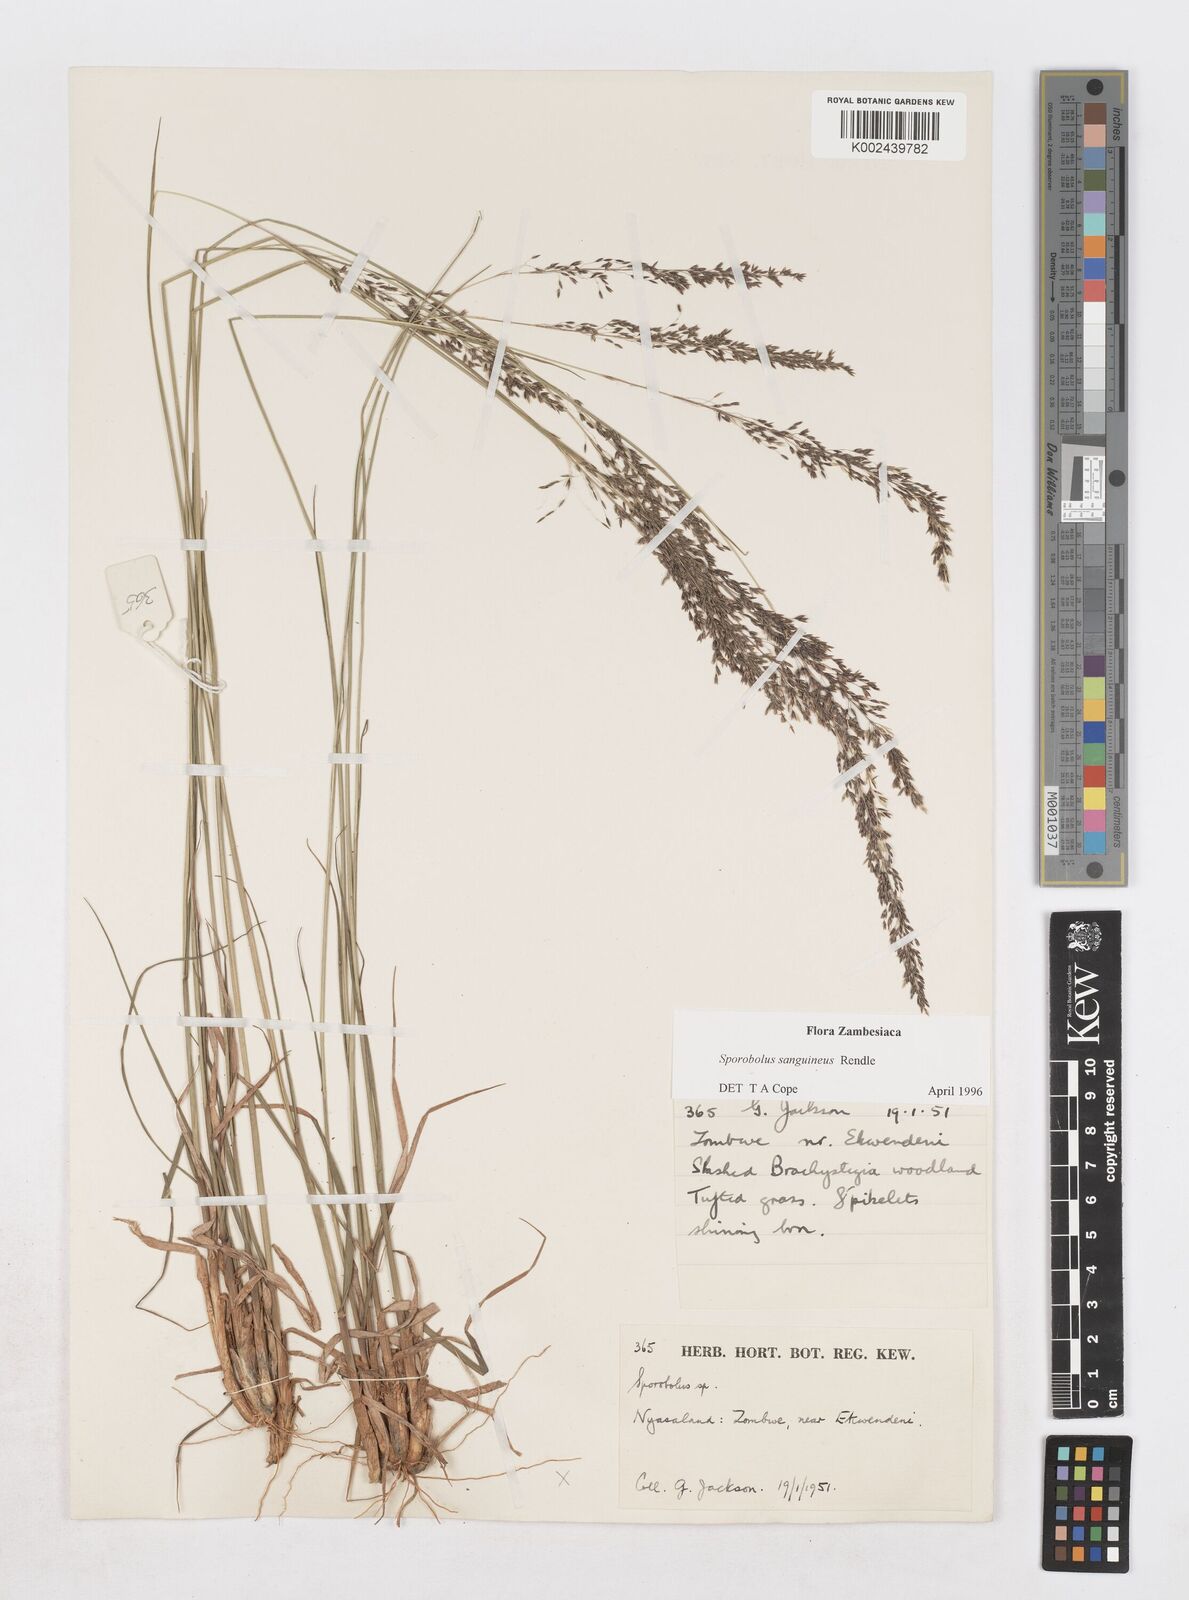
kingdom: Plantae
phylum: Tracheophyta
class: Liliopsida
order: Poales
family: Poaceae
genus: Sporobolus
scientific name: Sporobolus sanguineus
